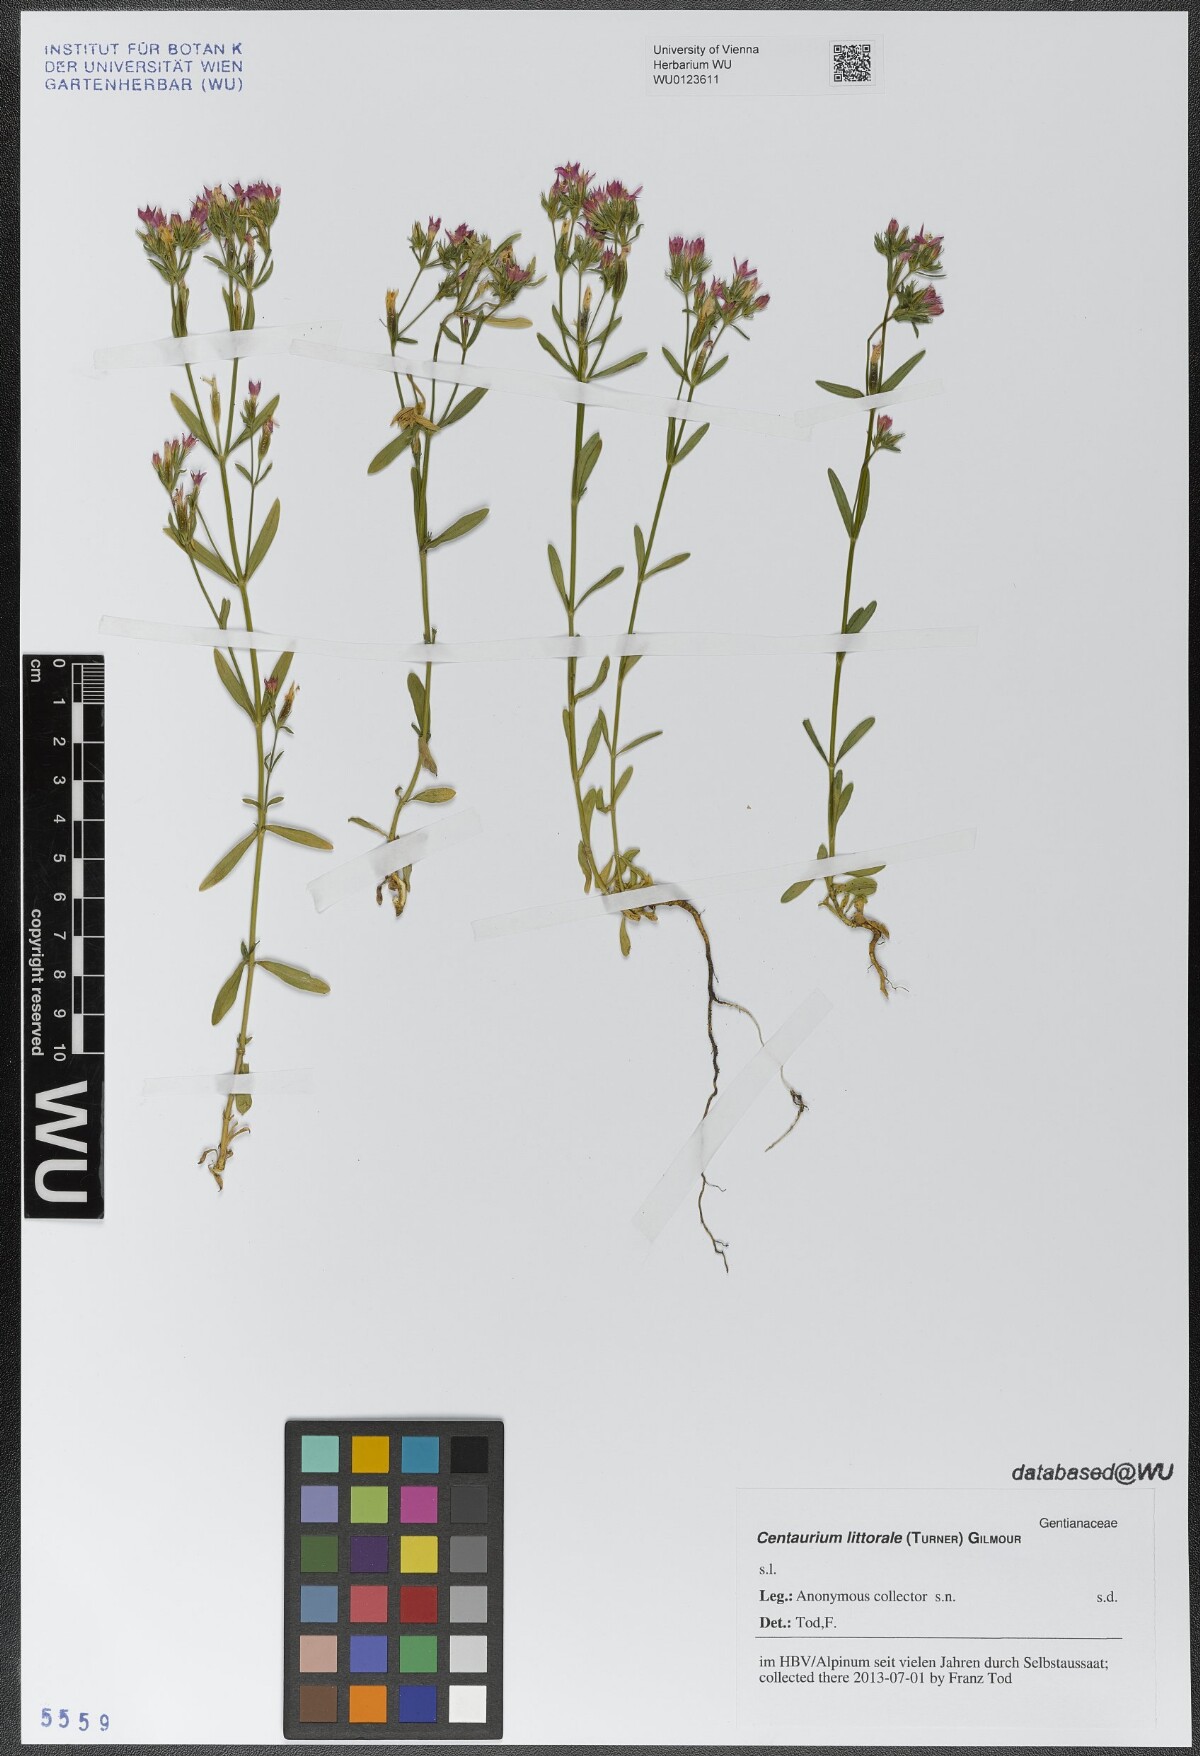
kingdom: Plantae
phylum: Tracheophyta
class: Magnoliopsida
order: Gentianales
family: Gentianaceae
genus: Centaurium
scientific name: Centaurium littorale
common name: Seaside centaury
